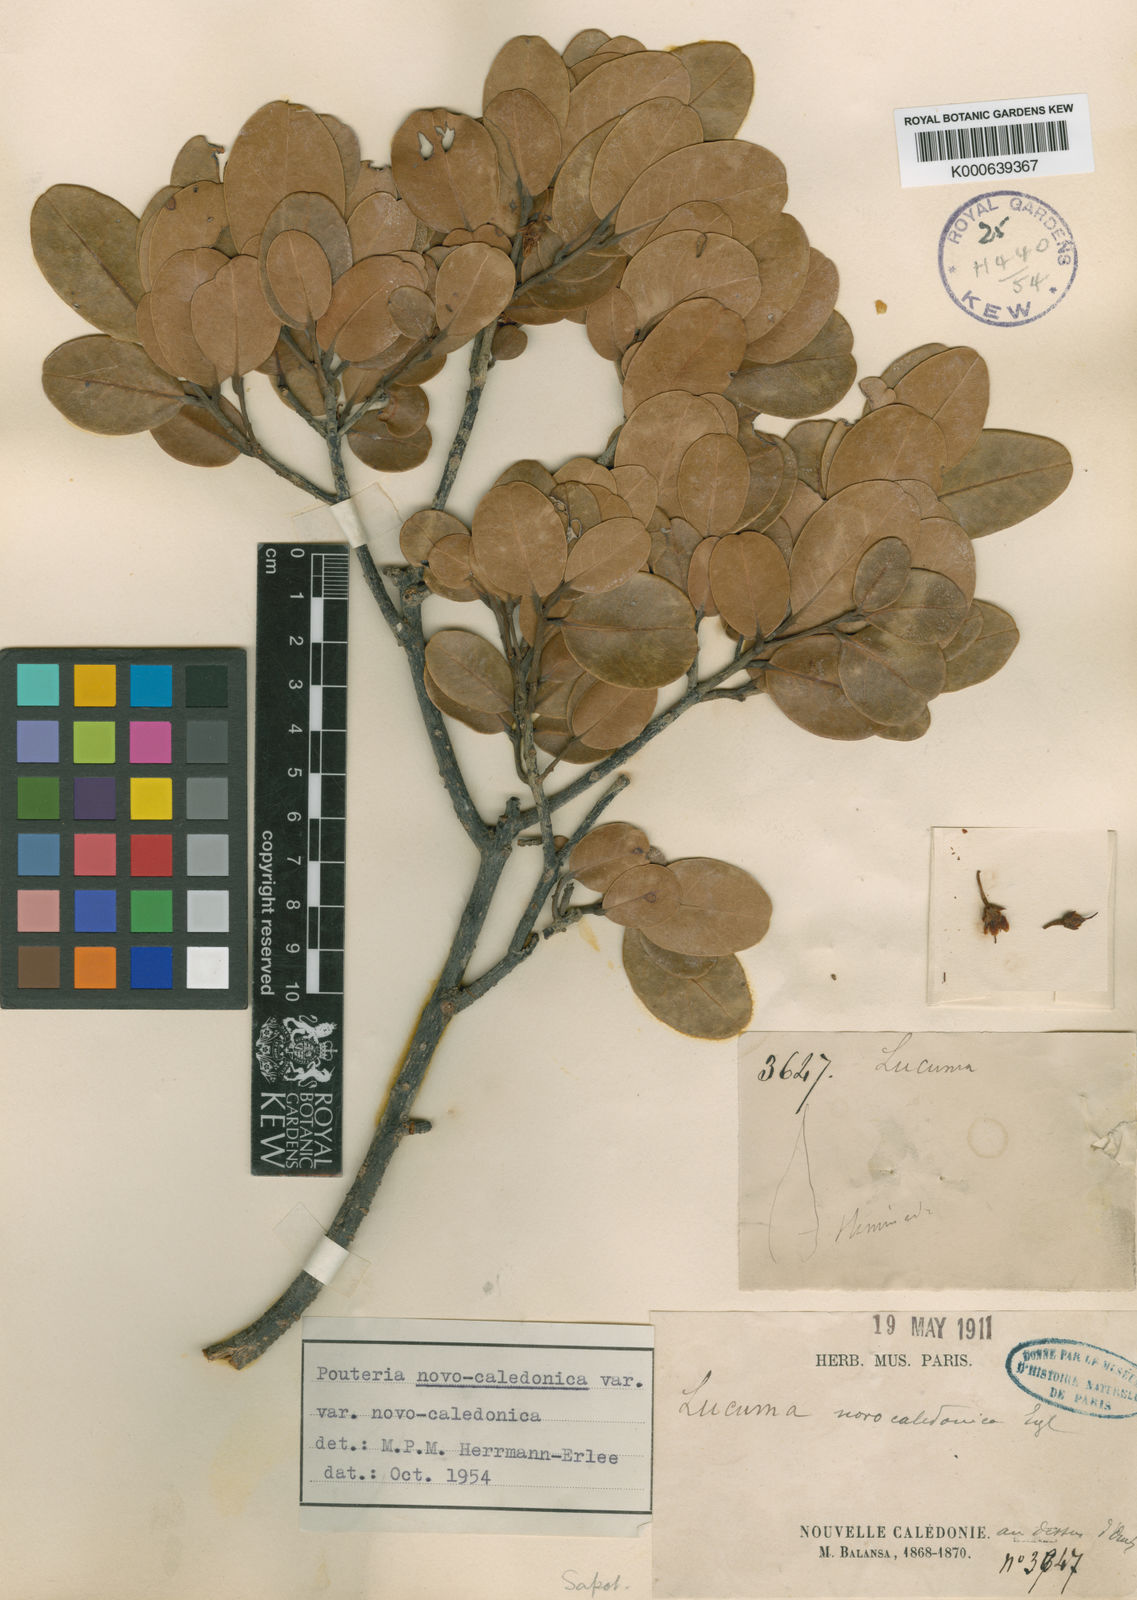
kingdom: Plantae
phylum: Tracheophyta
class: Magnoliopsida
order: Ericales
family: Sapotaceae
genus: Pichonia
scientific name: Pichonia deplanchei
